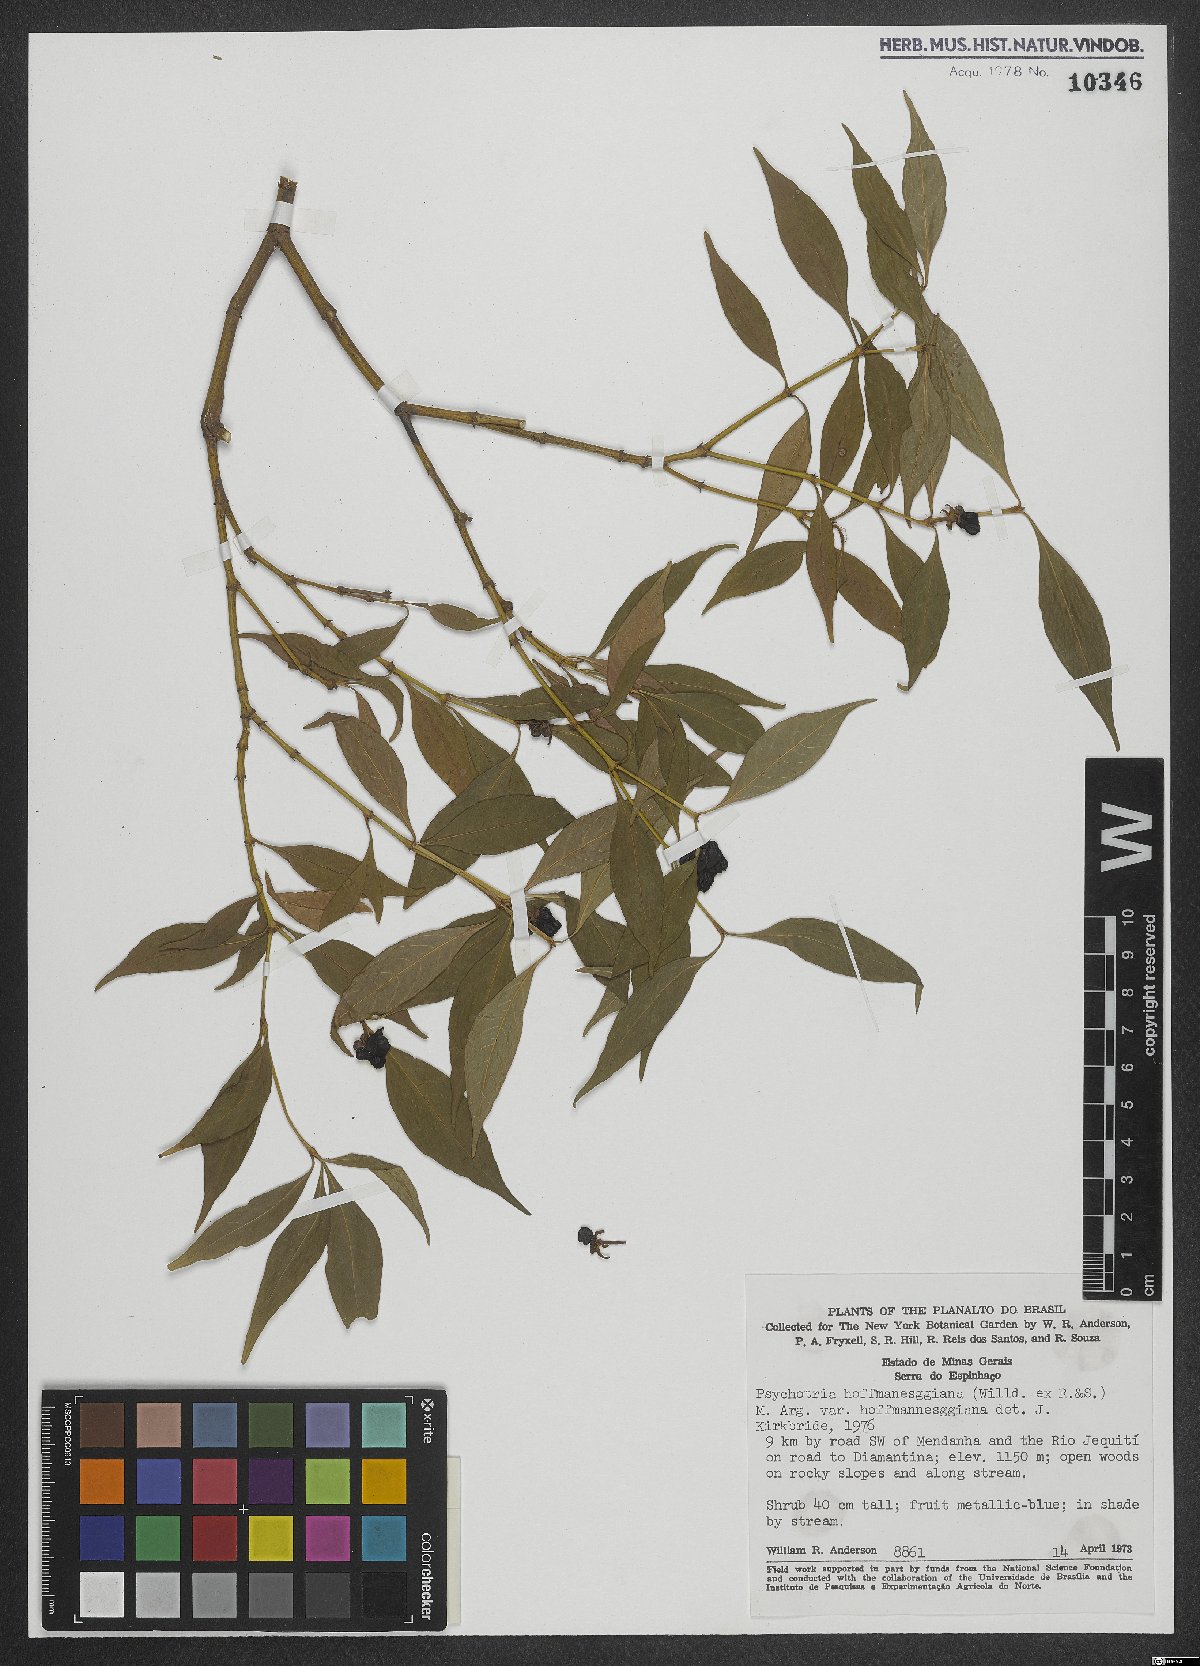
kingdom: Plantae
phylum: Tracheophyta
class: Magnoliopsida
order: Gentianales
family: Rubiaceae
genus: Palicourea
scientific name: Palicourea hoffmannseggiana
